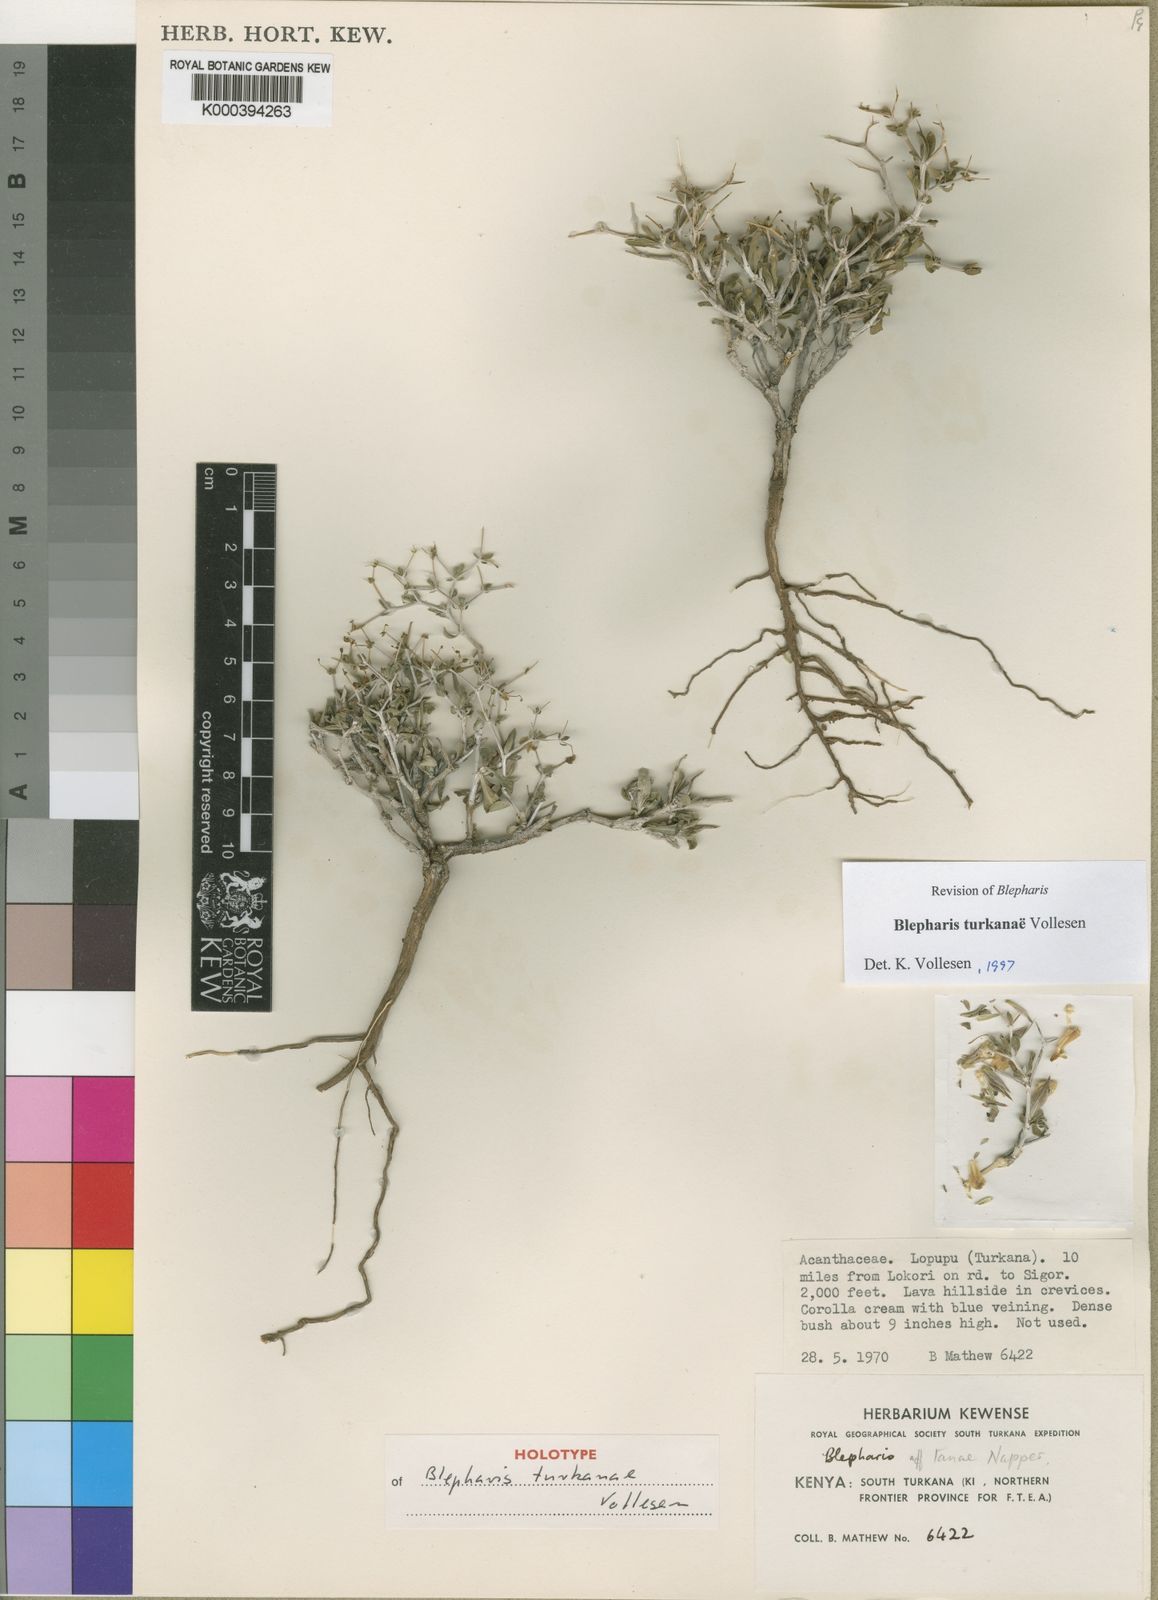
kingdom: Plantae
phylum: Tracheophyta
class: Magnoliopsida
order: Lamiales
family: Acanthaceae
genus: Blepharis
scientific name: Blepharis turkanae
